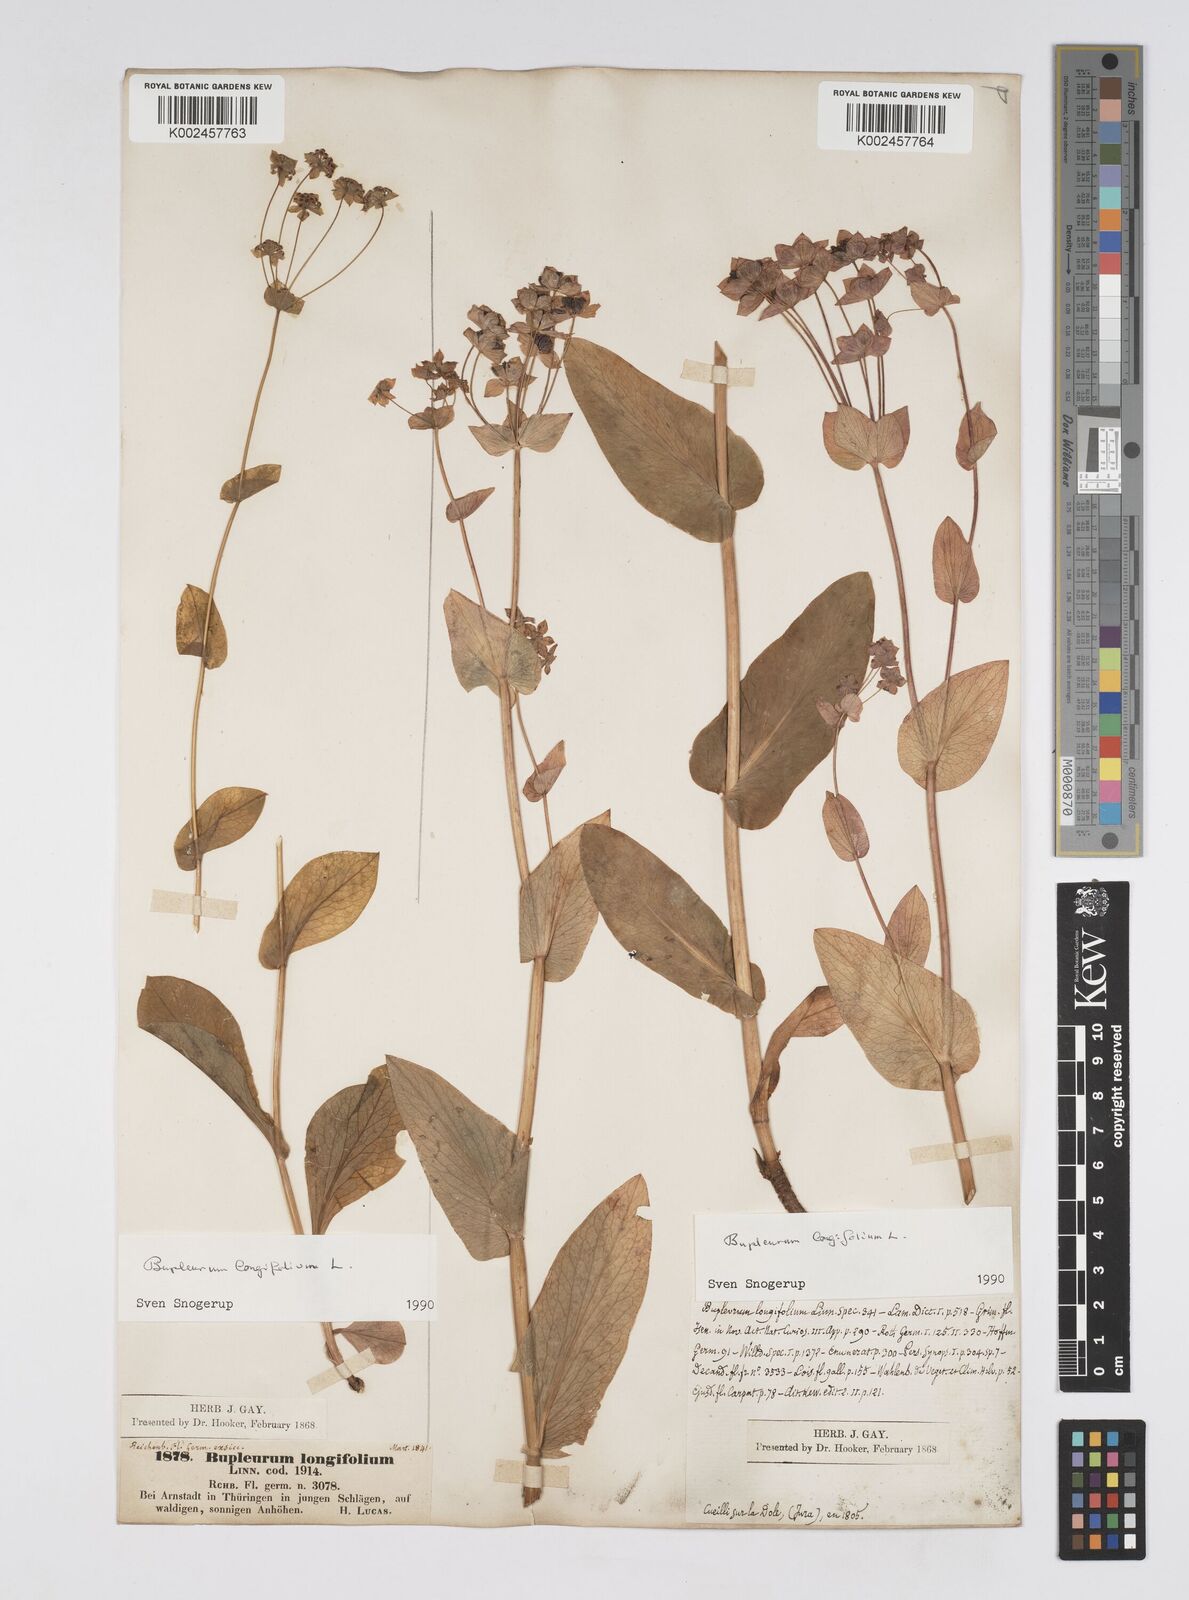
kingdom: Plantae
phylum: Tracheophyta
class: Magnoliopsida
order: Apiales
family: Apiaceae
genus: Bupleurum
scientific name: Bupleurum longifolium
